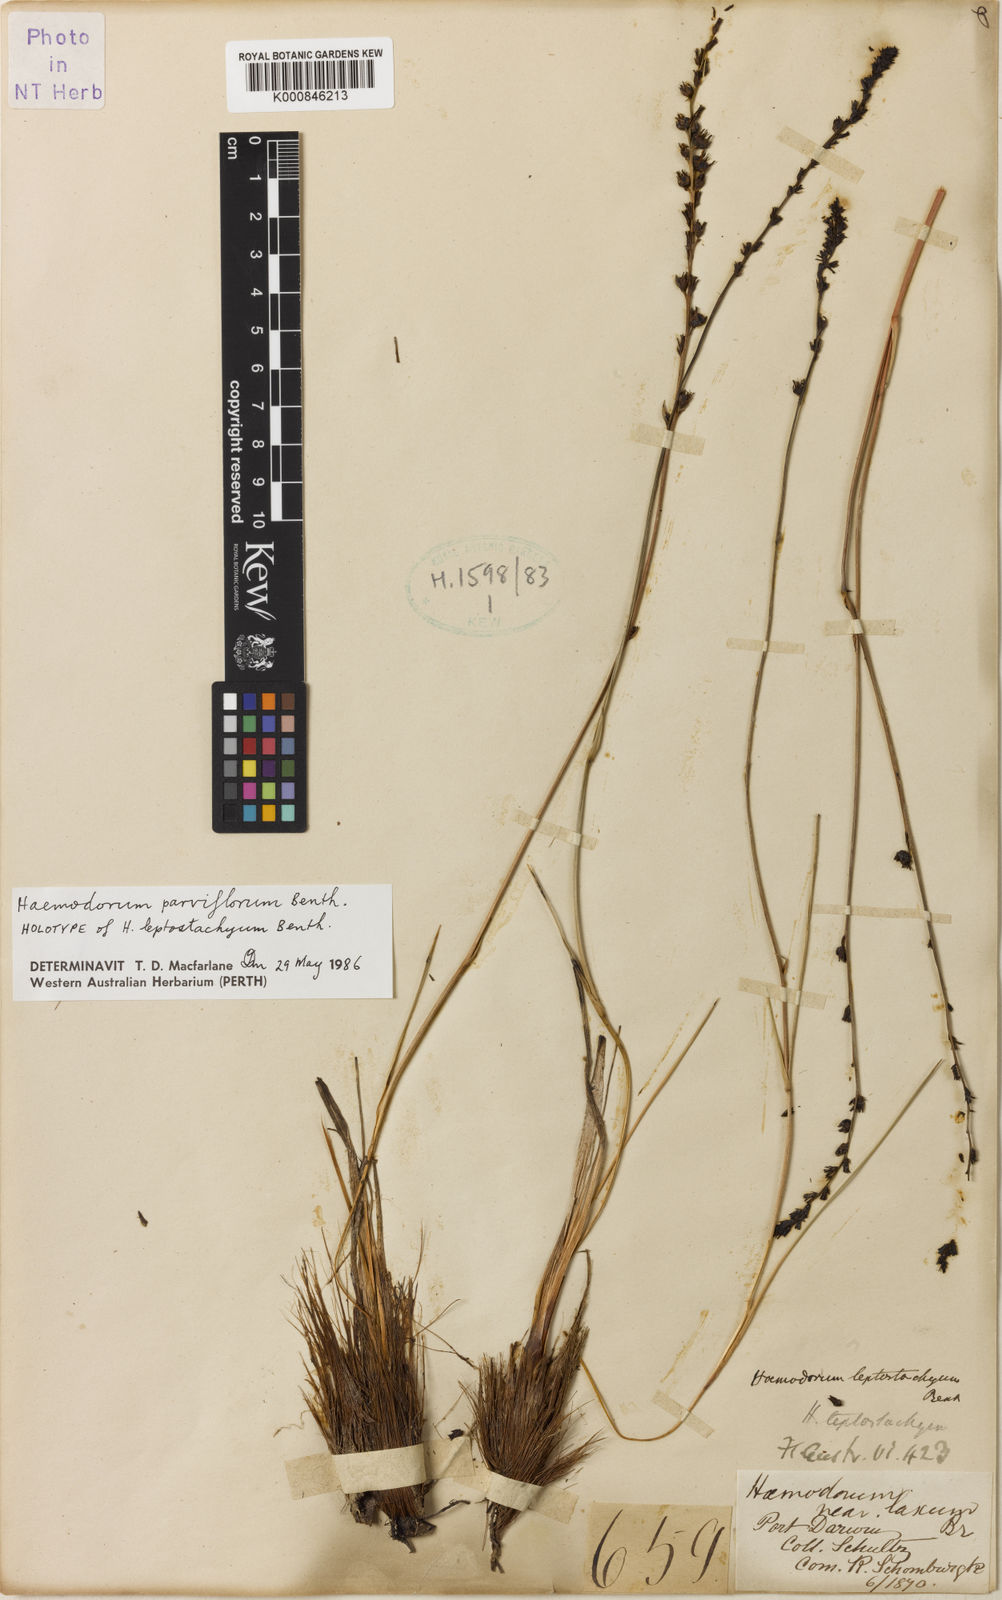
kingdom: Plantae
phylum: Tracheophyta
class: Liliopsida
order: Commelinales
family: Haemodoraceae
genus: Haemodorum
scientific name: Haemodorum parviflorum
